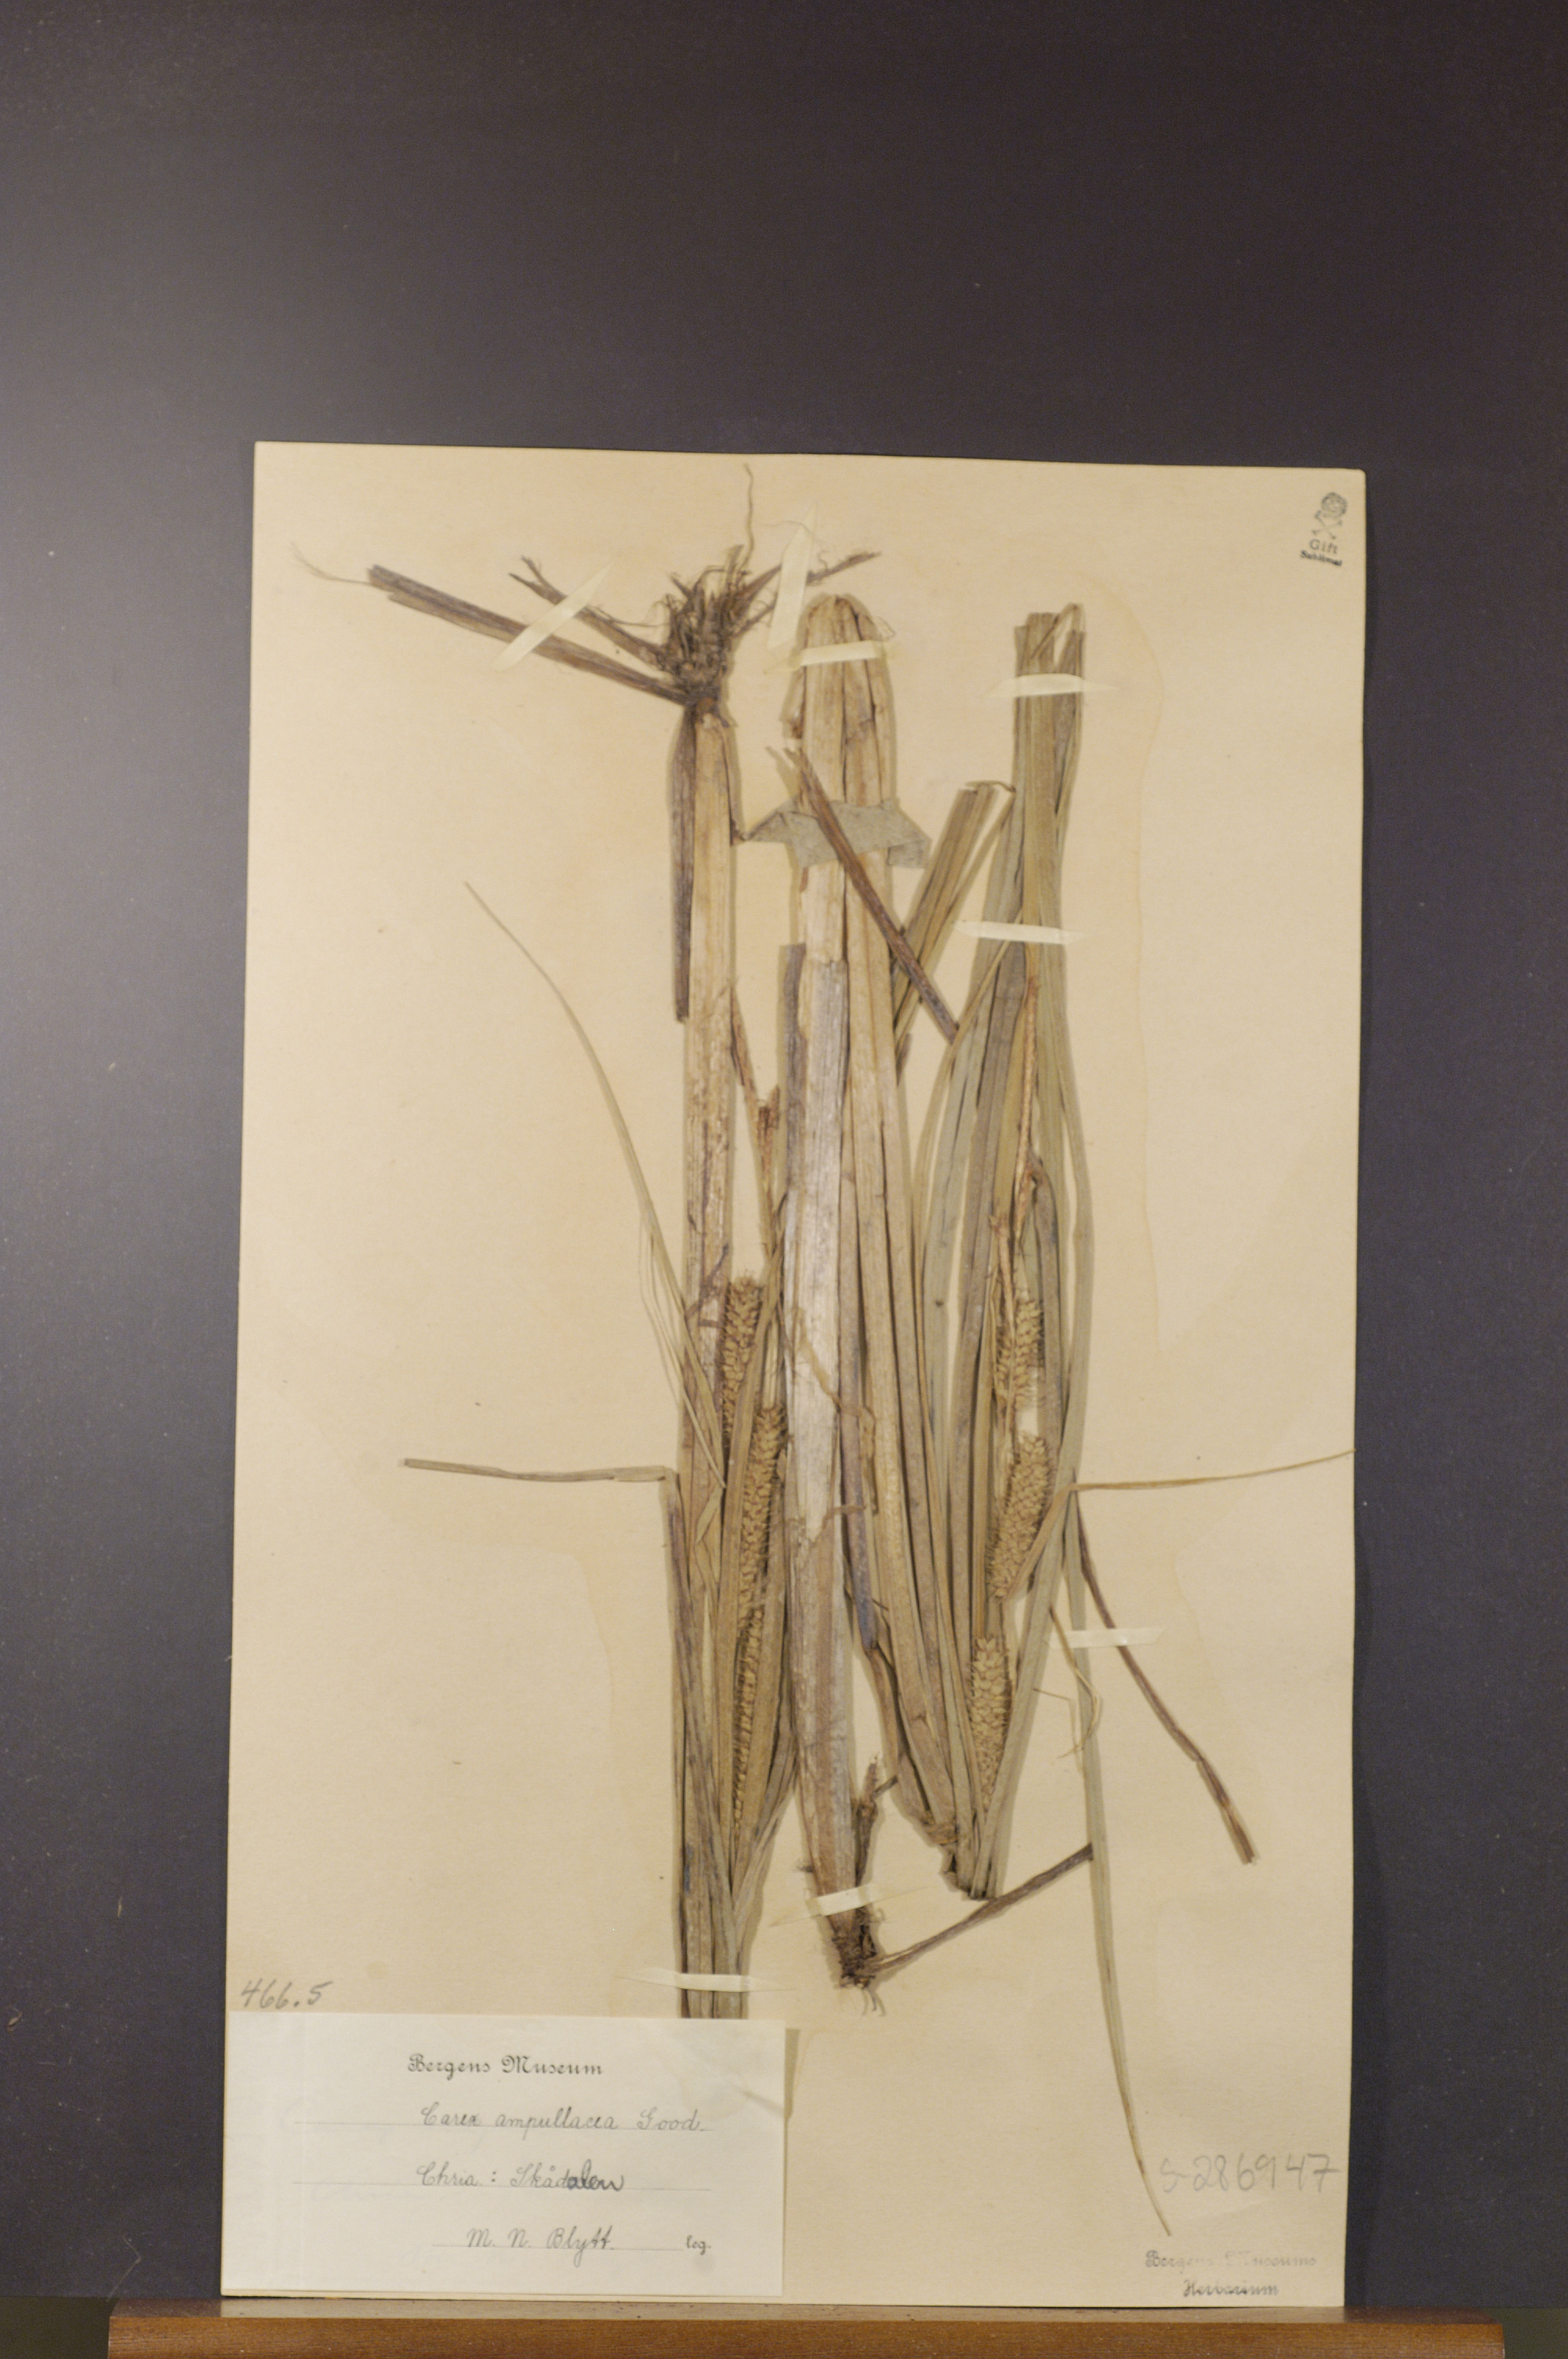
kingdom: Plantae
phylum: Tracheophyta
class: Liliopsida
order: Poales
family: Cyperaceae
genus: Carex
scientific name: Carex rostrata
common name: Bottle sedge
